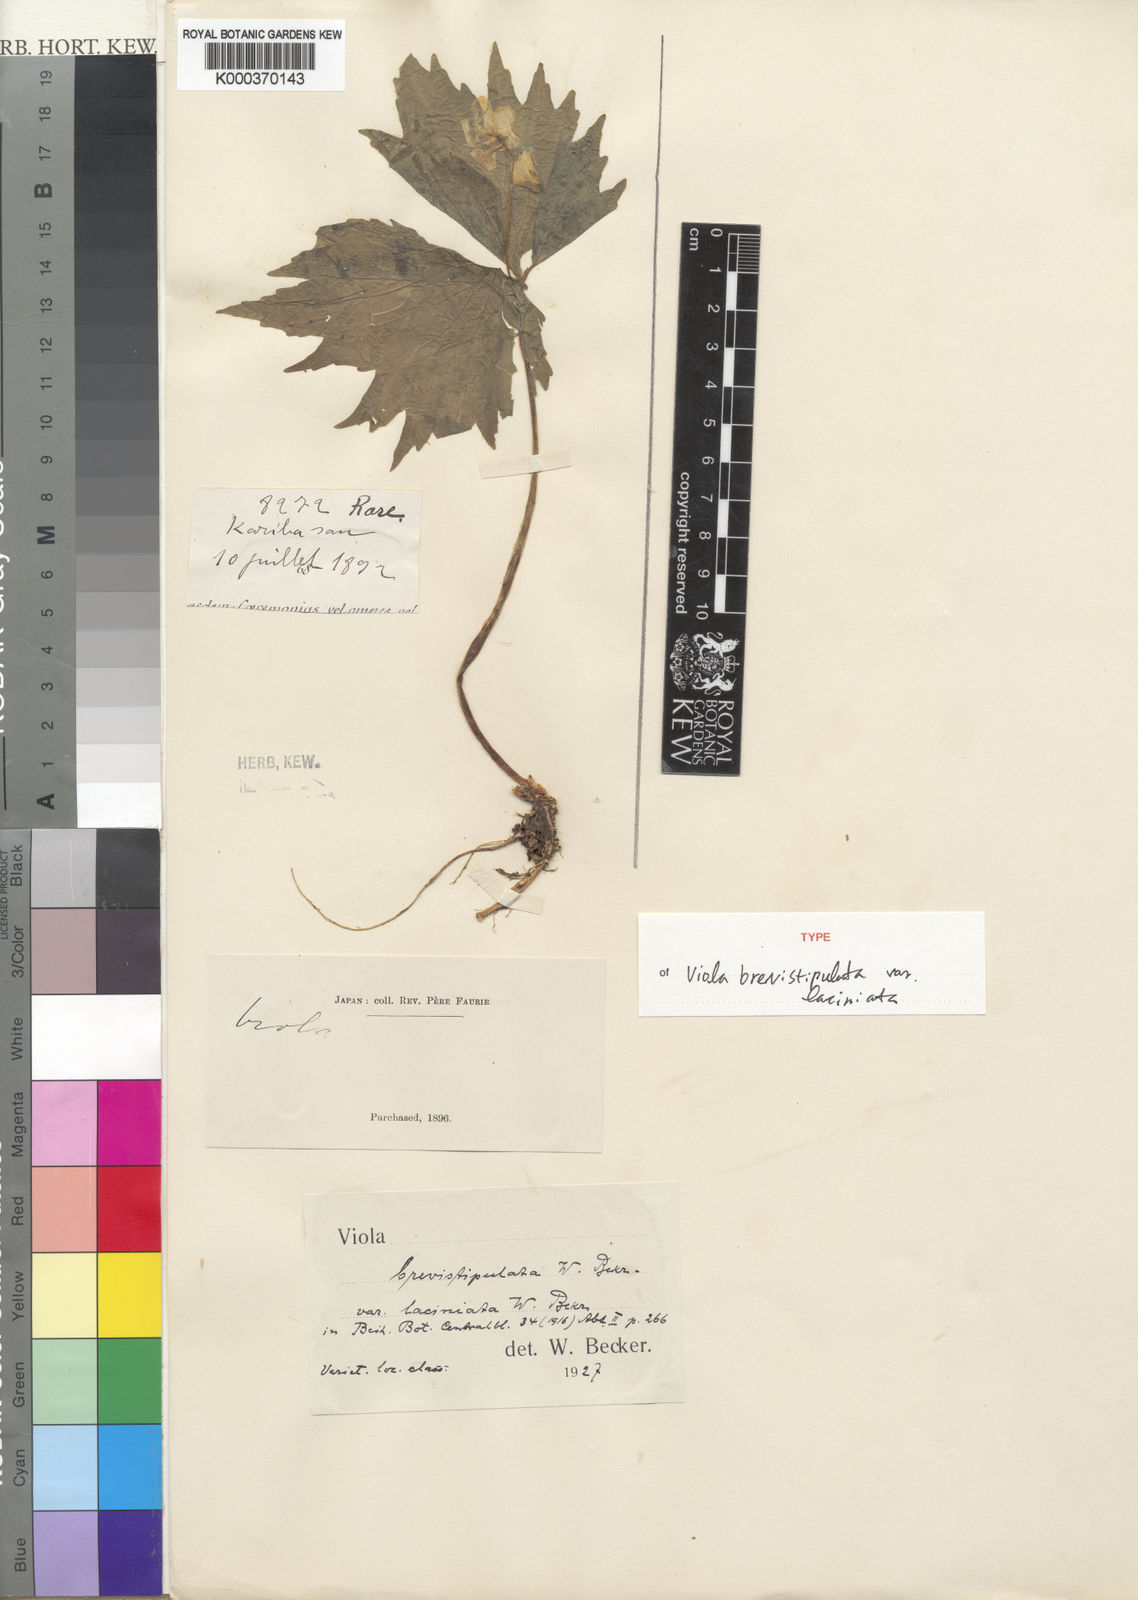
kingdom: Plantae
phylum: Tracheophyta
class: Magnoliopsida
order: Malpighiales
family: Violaceae
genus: Viola
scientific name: Viola brevistipulata
